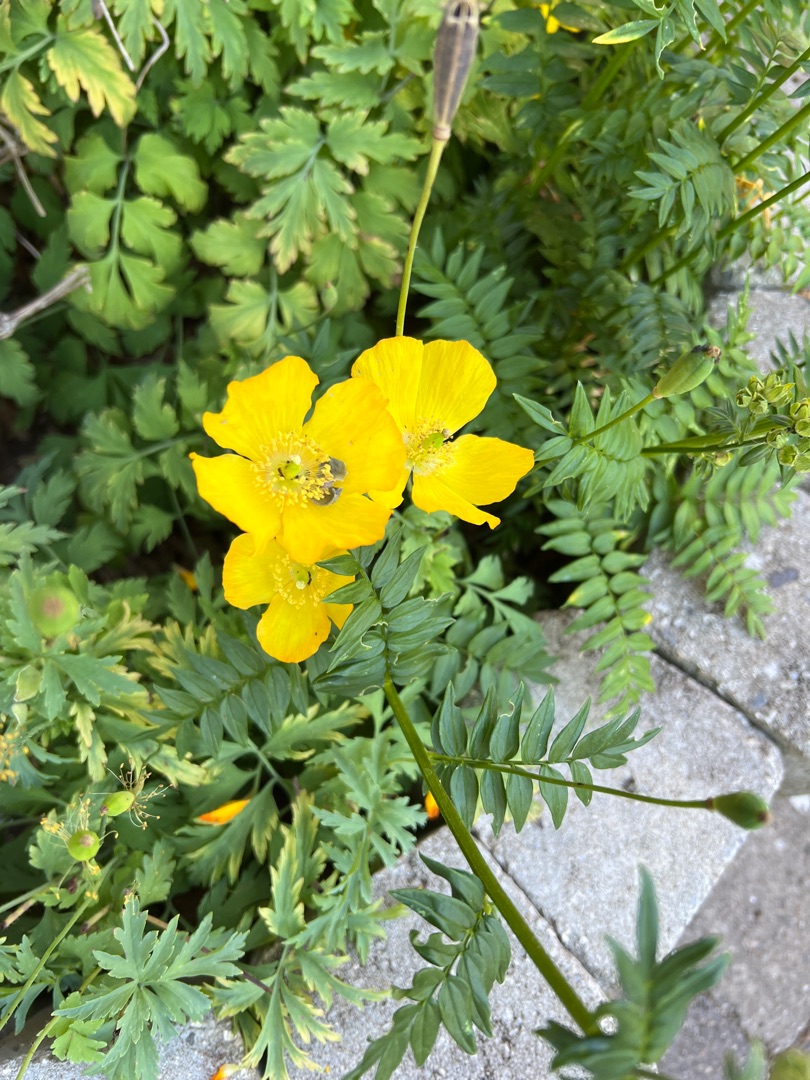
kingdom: Plantae
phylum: Tracheophyta
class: Magnoliopsida
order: Ranunculales
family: Papaveraceae
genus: Papaver
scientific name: Papaver cambricum
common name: Skov-valmue
